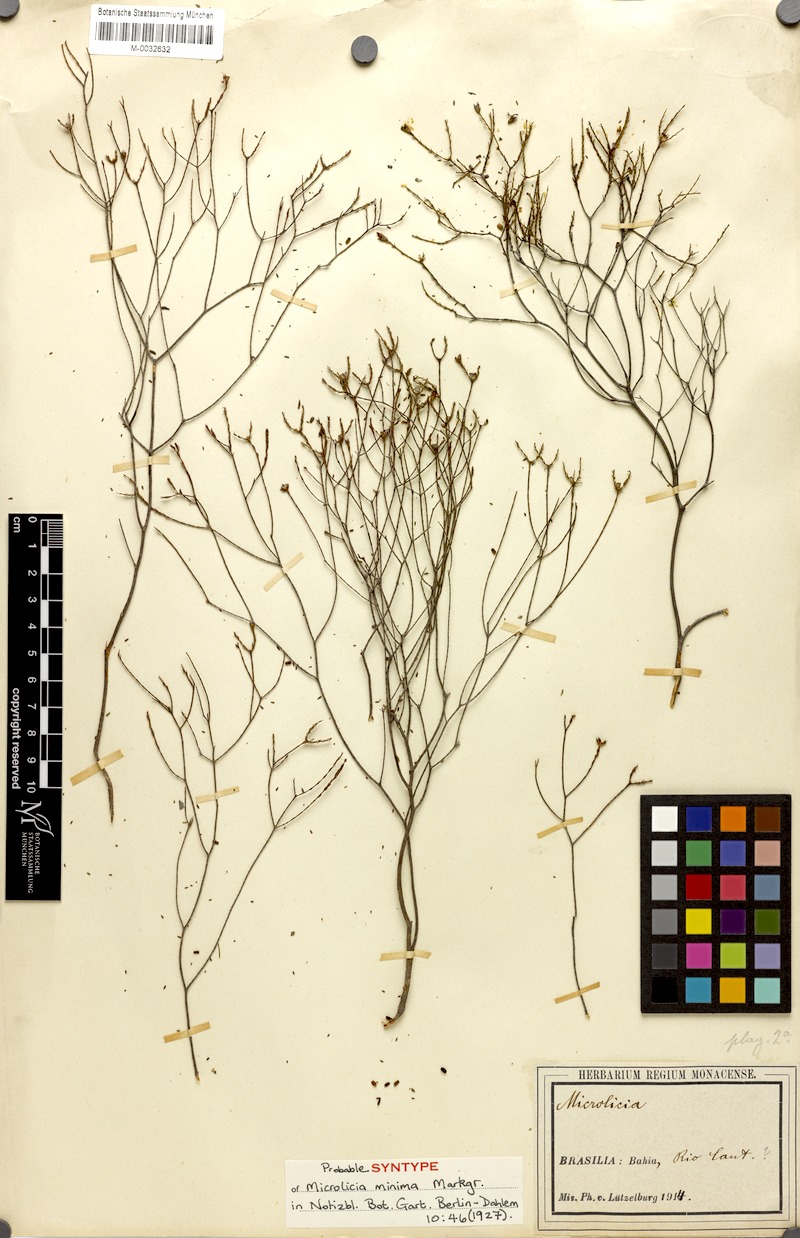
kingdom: Plantae
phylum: Tracheophyta
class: Magnoliopsida
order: Myrtales
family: Melastomataceae
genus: Microlicia
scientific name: Microlicia minima
